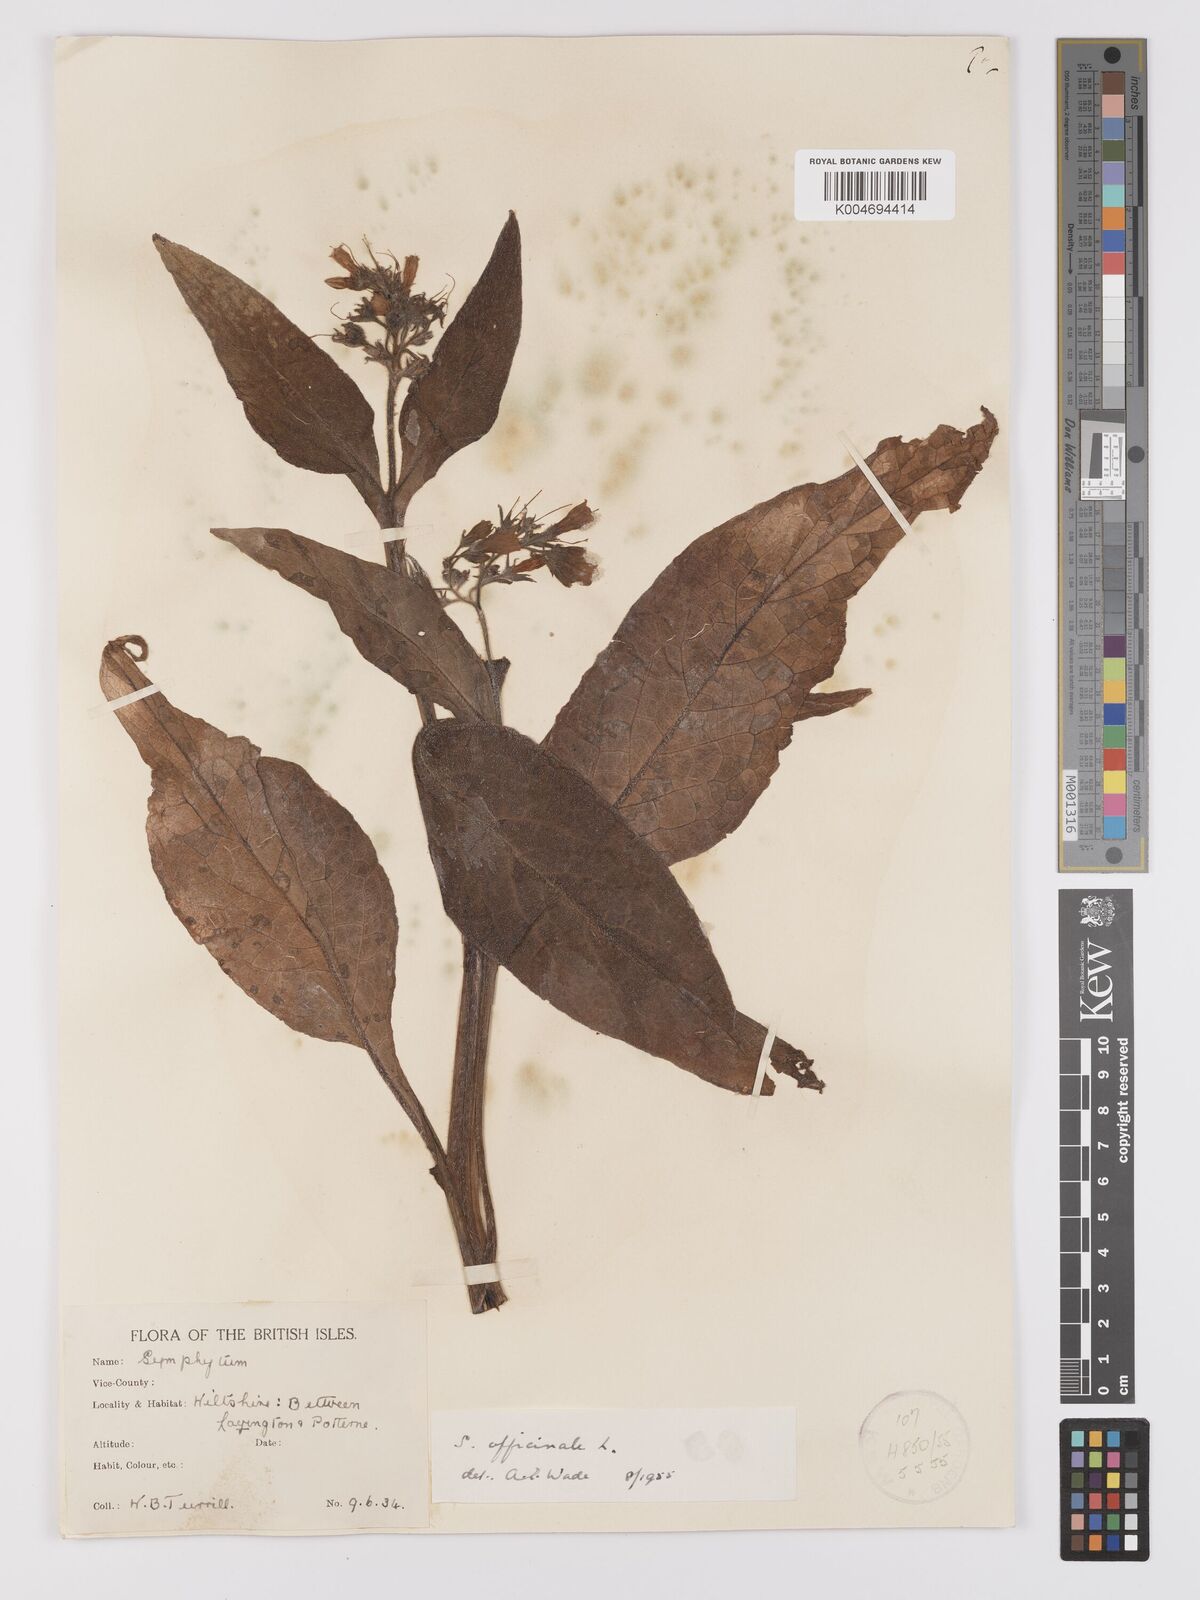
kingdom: Plantae
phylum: Tracheophyta
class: Magnoliopsida
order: Boraginales
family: Boraginaceae
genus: Symphytum
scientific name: Symphytum officinale
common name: Common comfrey
